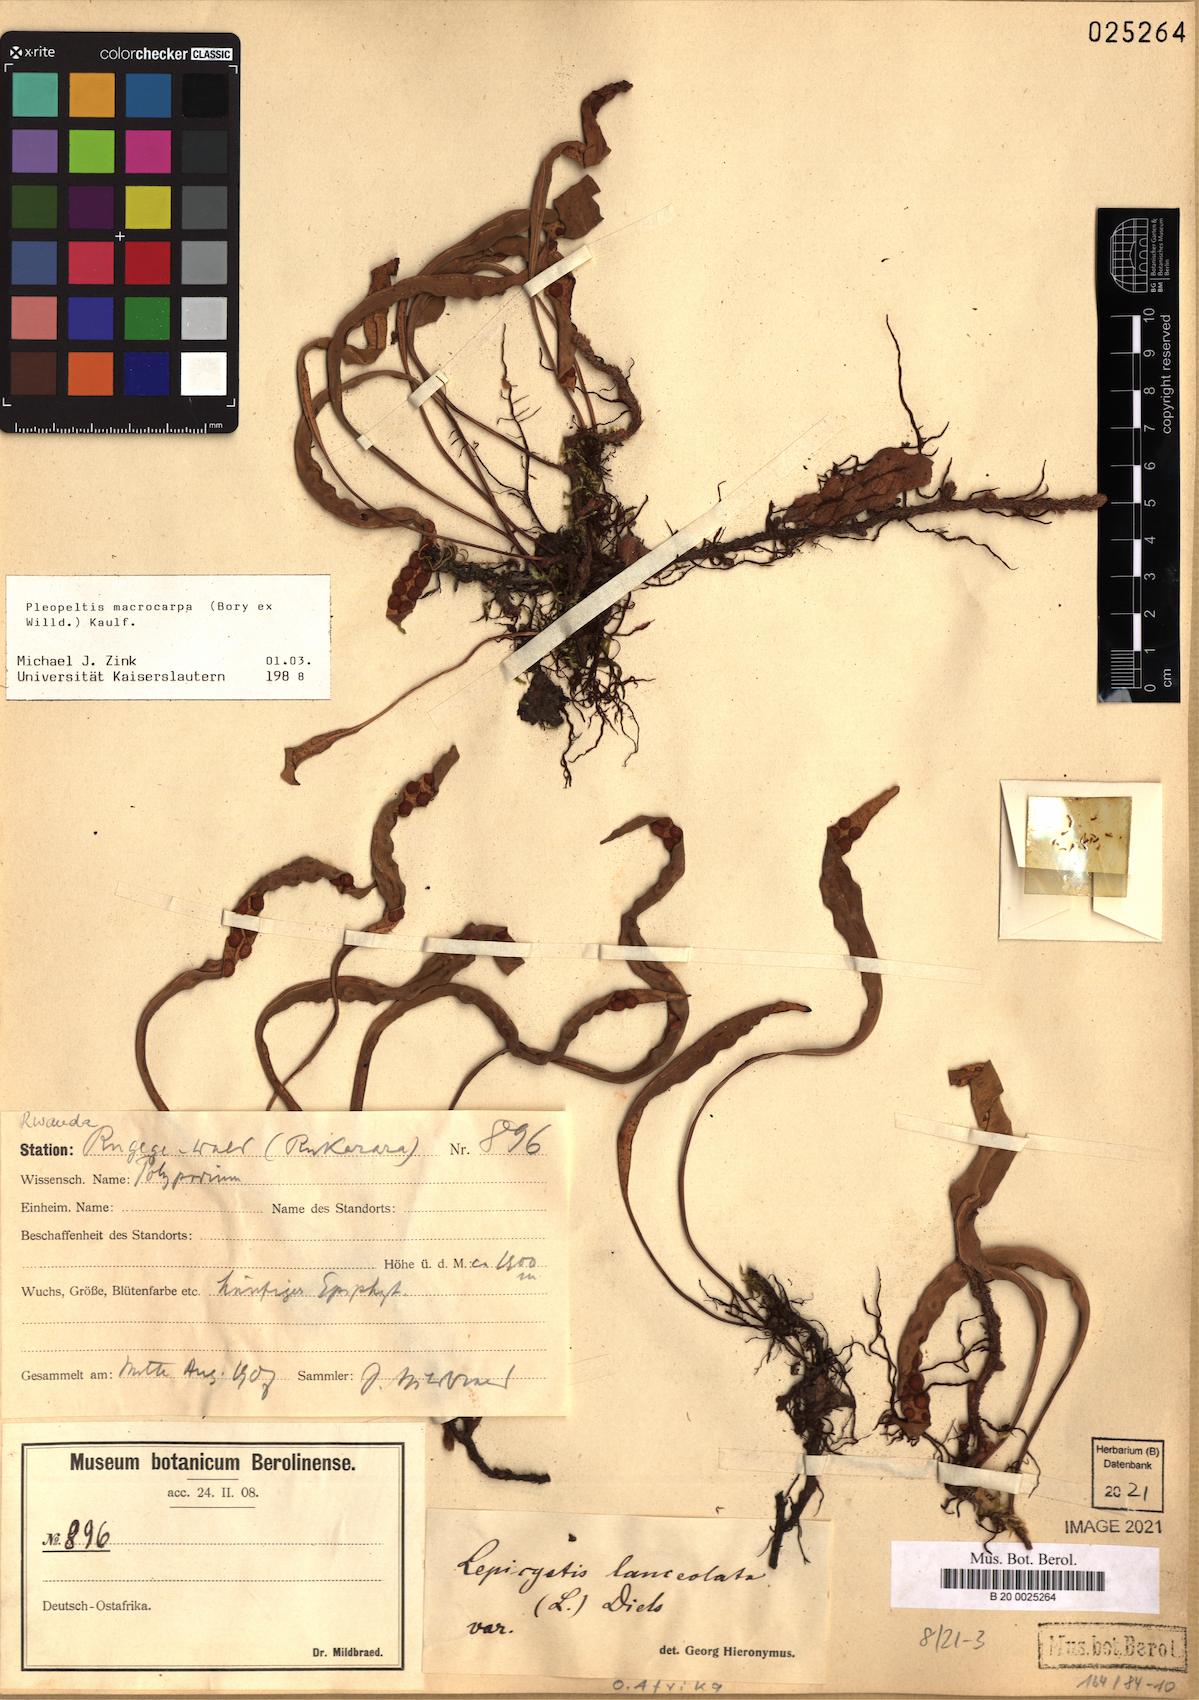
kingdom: Plantae
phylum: Tracheophyta
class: Polypodiopsida
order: Polypodiales
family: Polypodiaceae
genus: Pleopeltis
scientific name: Pleopeltis macrocarpa
